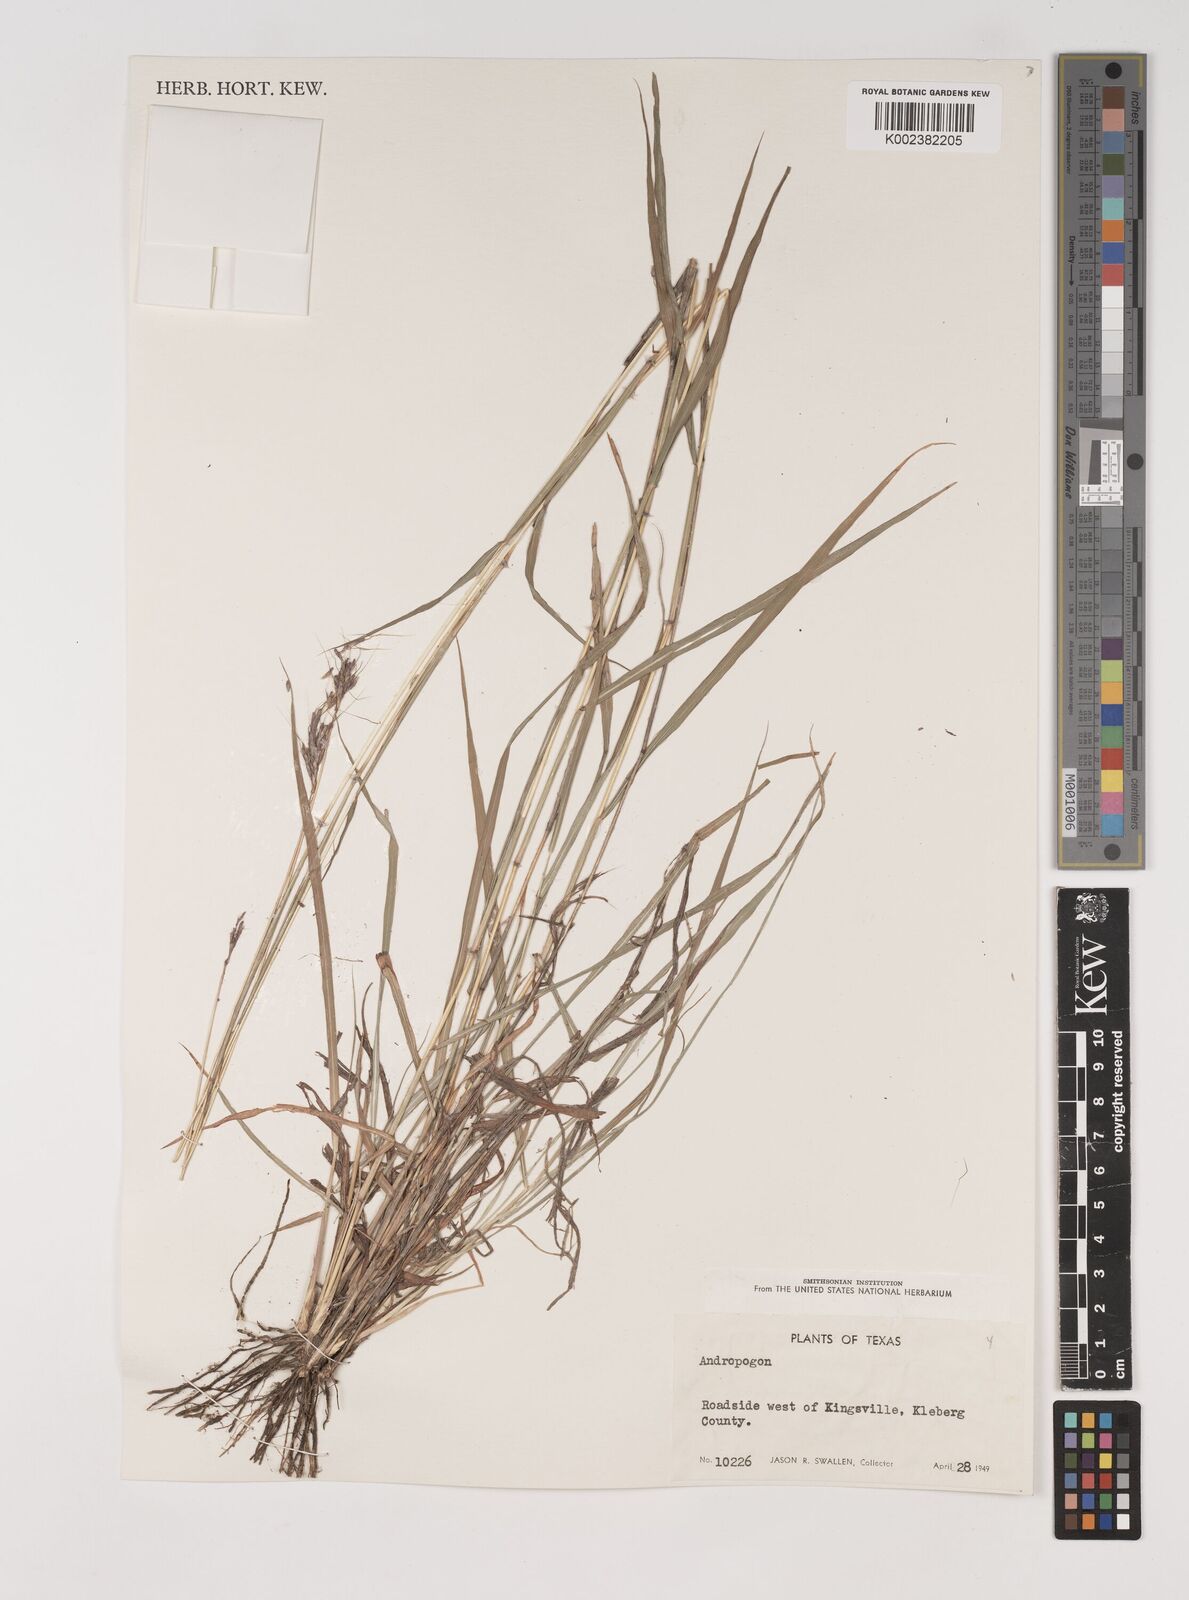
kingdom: Plantae
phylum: Tracheophyta
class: Liliopsida
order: Poales
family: Poaceae
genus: Bothriochloa
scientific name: Bothriochloa bladhii
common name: Caucasian bluestem
